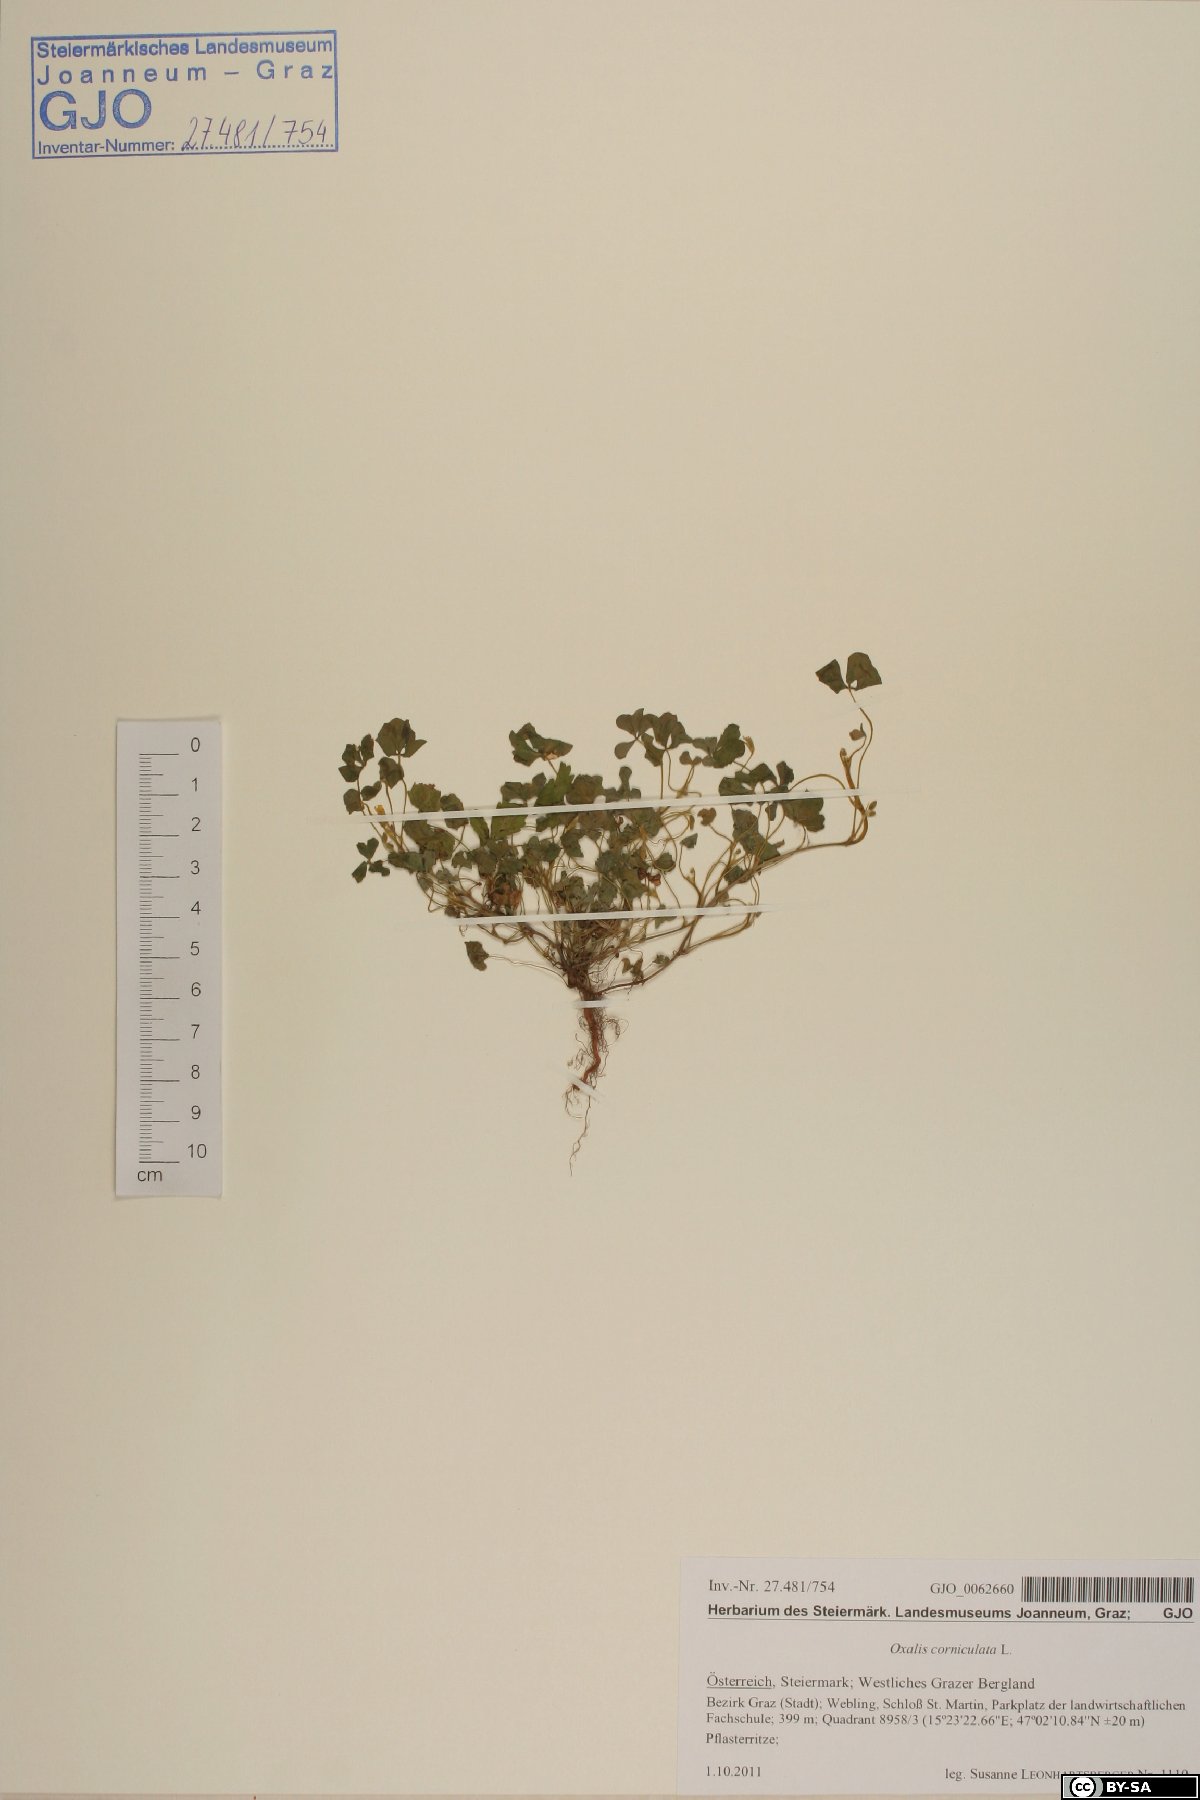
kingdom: Plantae
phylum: Tracheophyta
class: Magnoliopsida
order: Oxalidales
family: Oxalidaceae
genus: Oxalis
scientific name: Oxalis corniculata
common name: Procumbent yellow-sorrel
